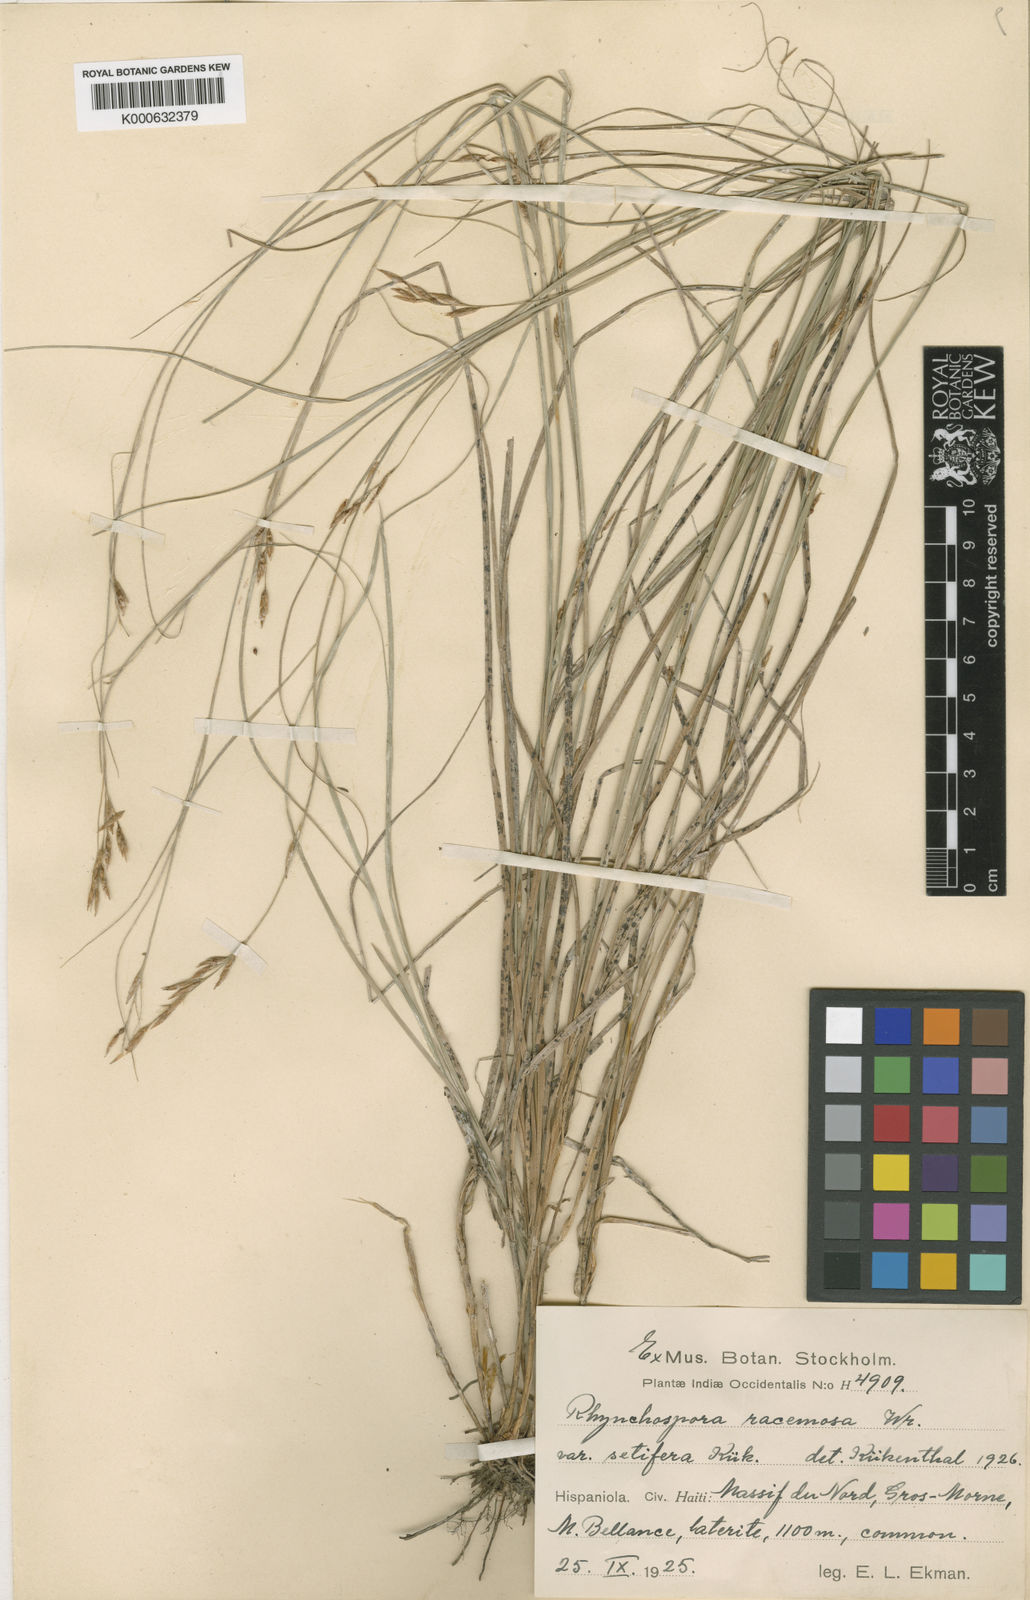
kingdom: Plantae
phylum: Tracheophyta
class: Liliopsida
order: Poales
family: Cyperaceae
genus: Rhynchospora
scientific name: Rhynchospora
